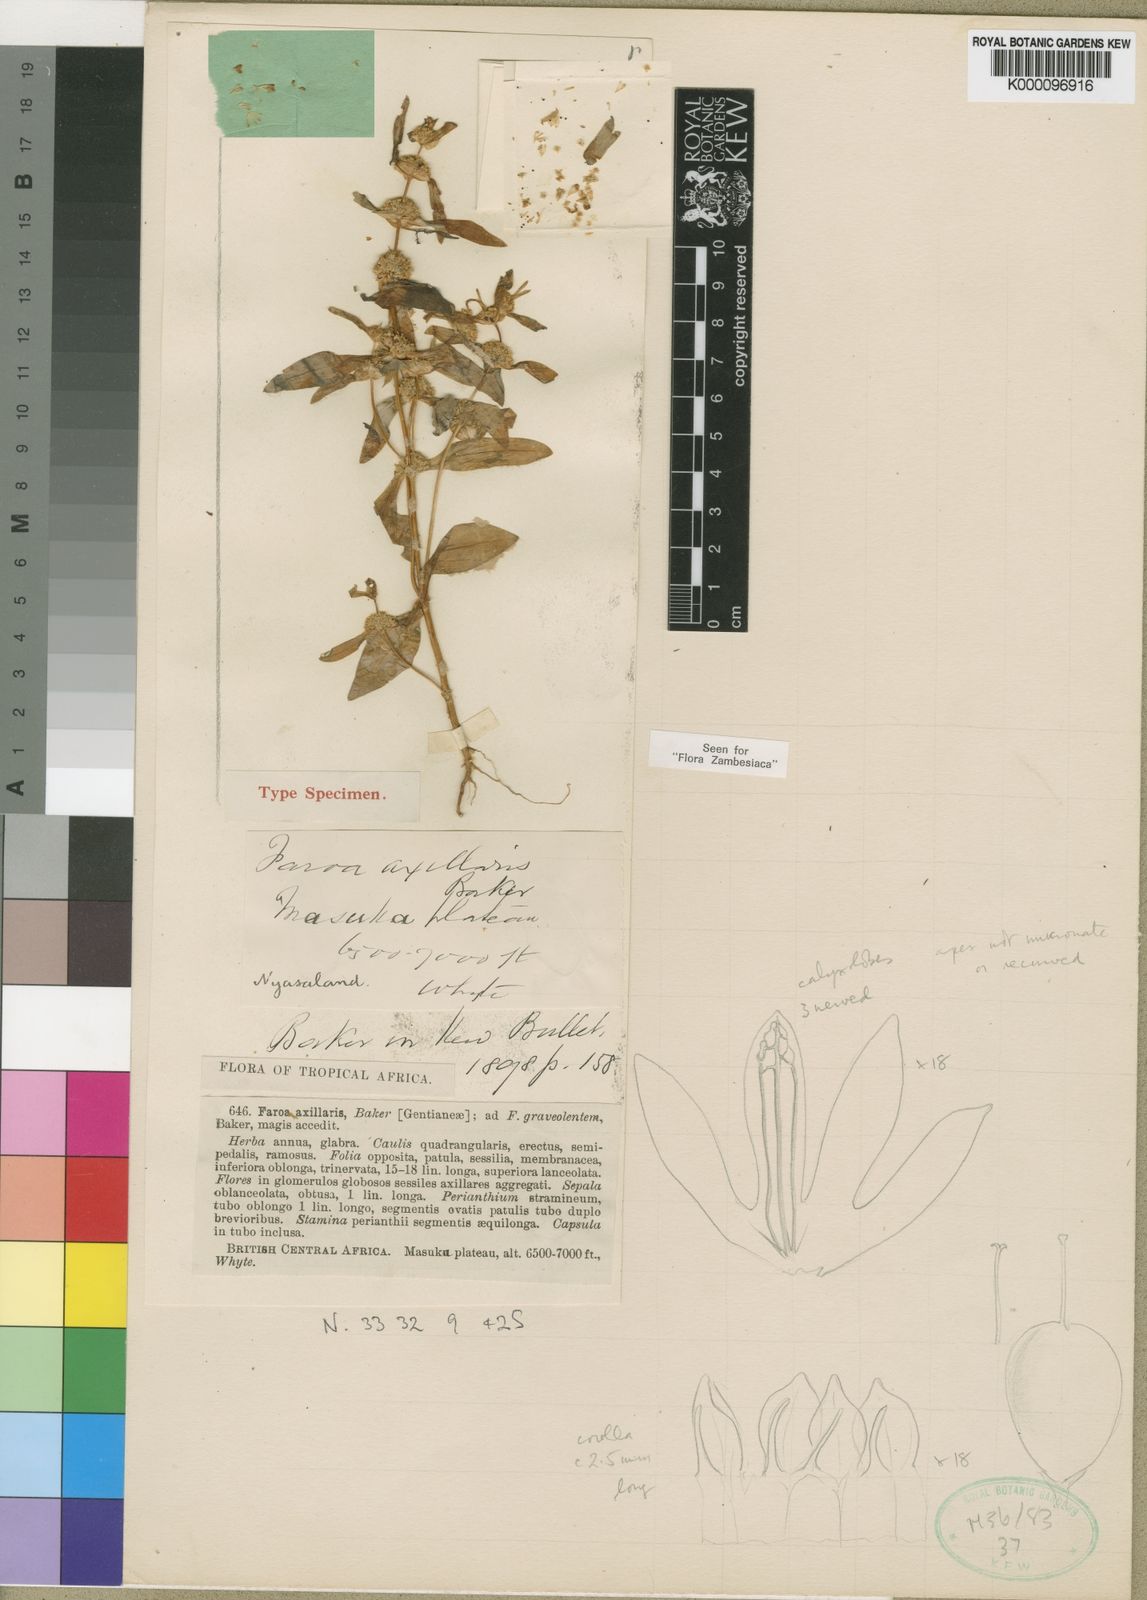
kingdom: Plantae
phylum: Tracheophyta
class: Magnoliopsida
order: Gentianales
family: Gentianaceae
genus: Faroa
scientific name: Faroa axillaris
